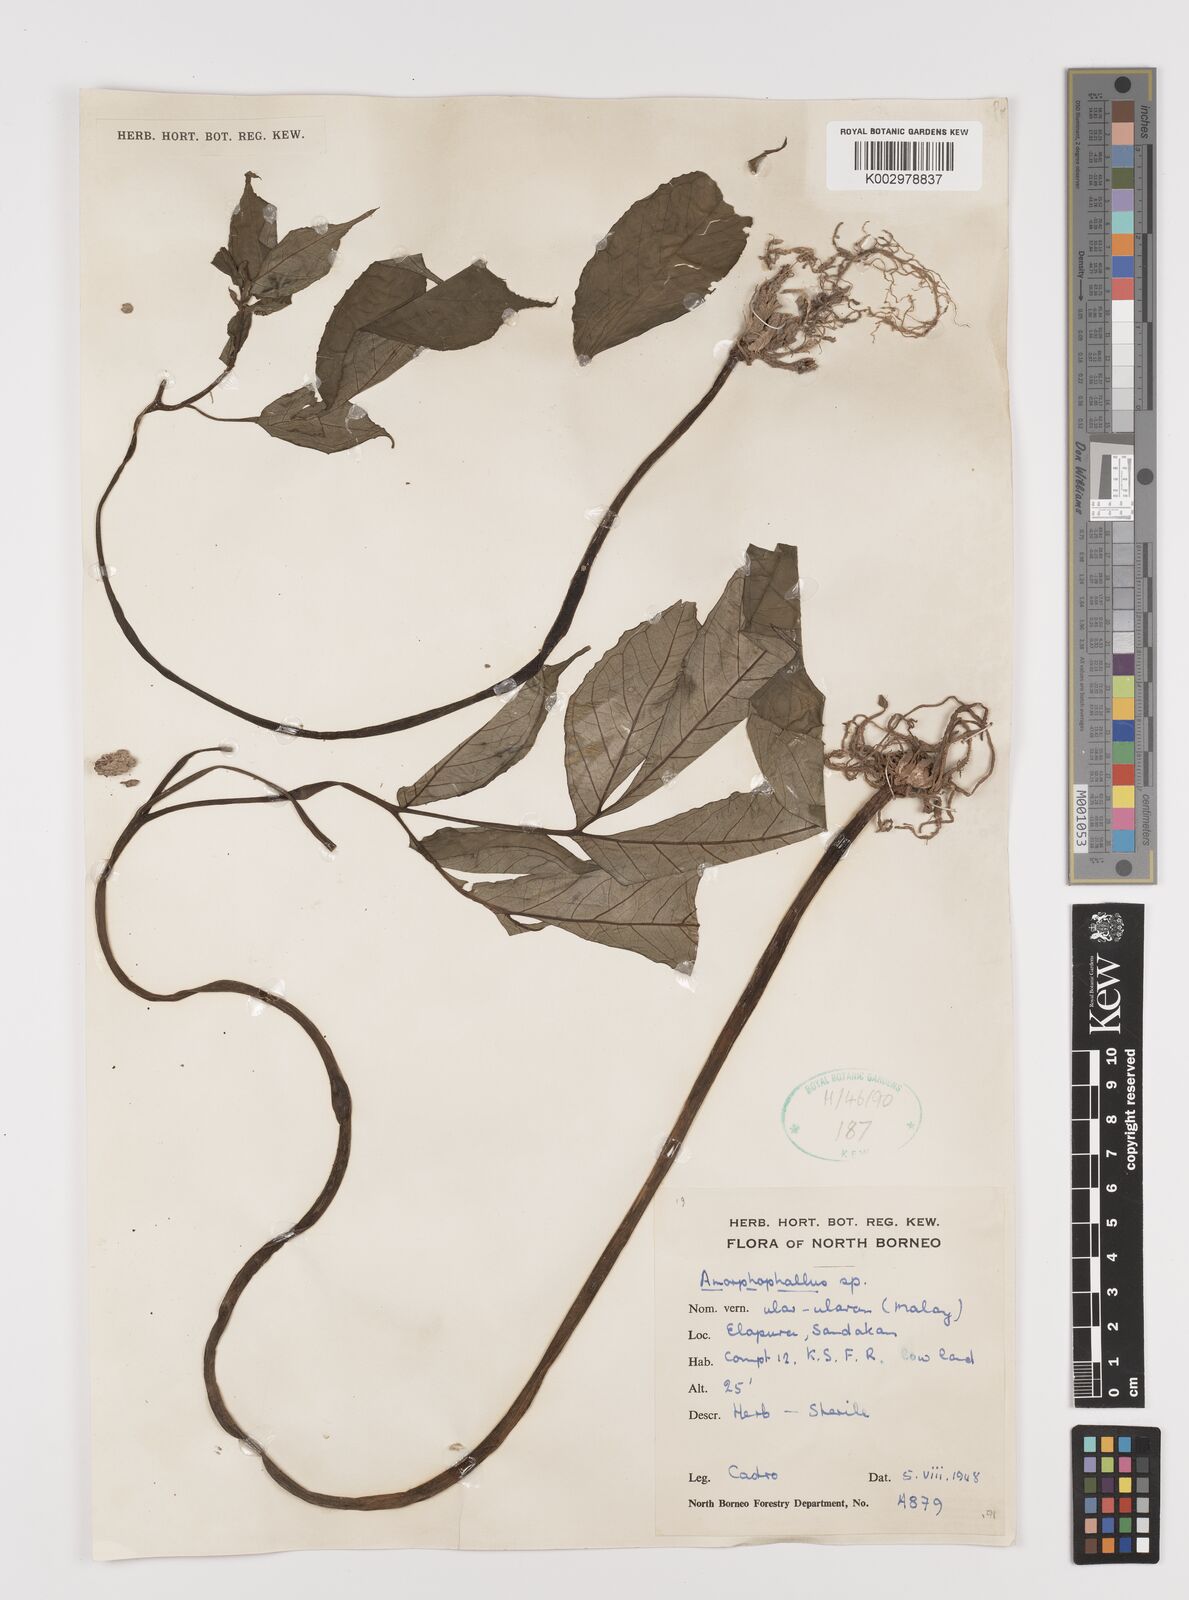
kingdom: Plantae
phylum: Tracheophyta
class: Liliopsida
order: Alismatales
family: Araceae
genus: Amorphophallus
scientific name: Amorphophallus
